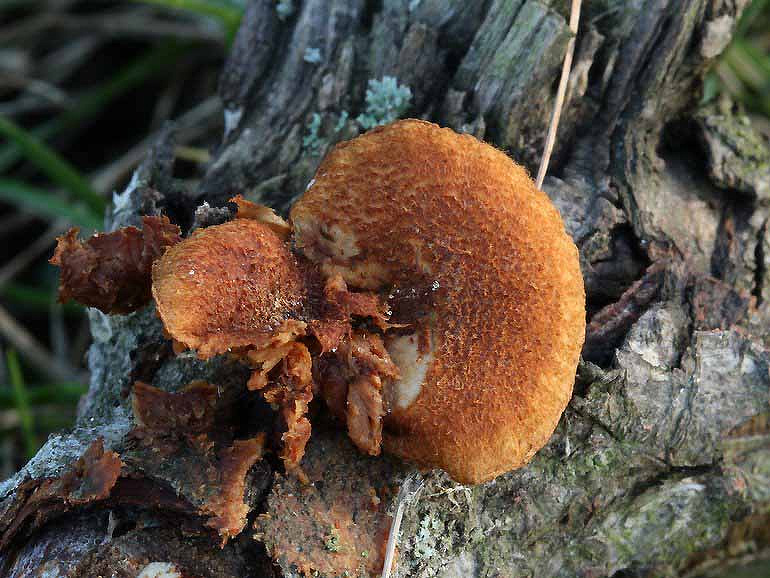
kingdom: Fungi
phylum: Basidiomycota
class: Agaricomycetes
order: Agaricales
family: Tubariaceae
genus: Phaeomarasmius
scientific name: Phaeomarasmius erinaceus
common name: spidsskælhat
